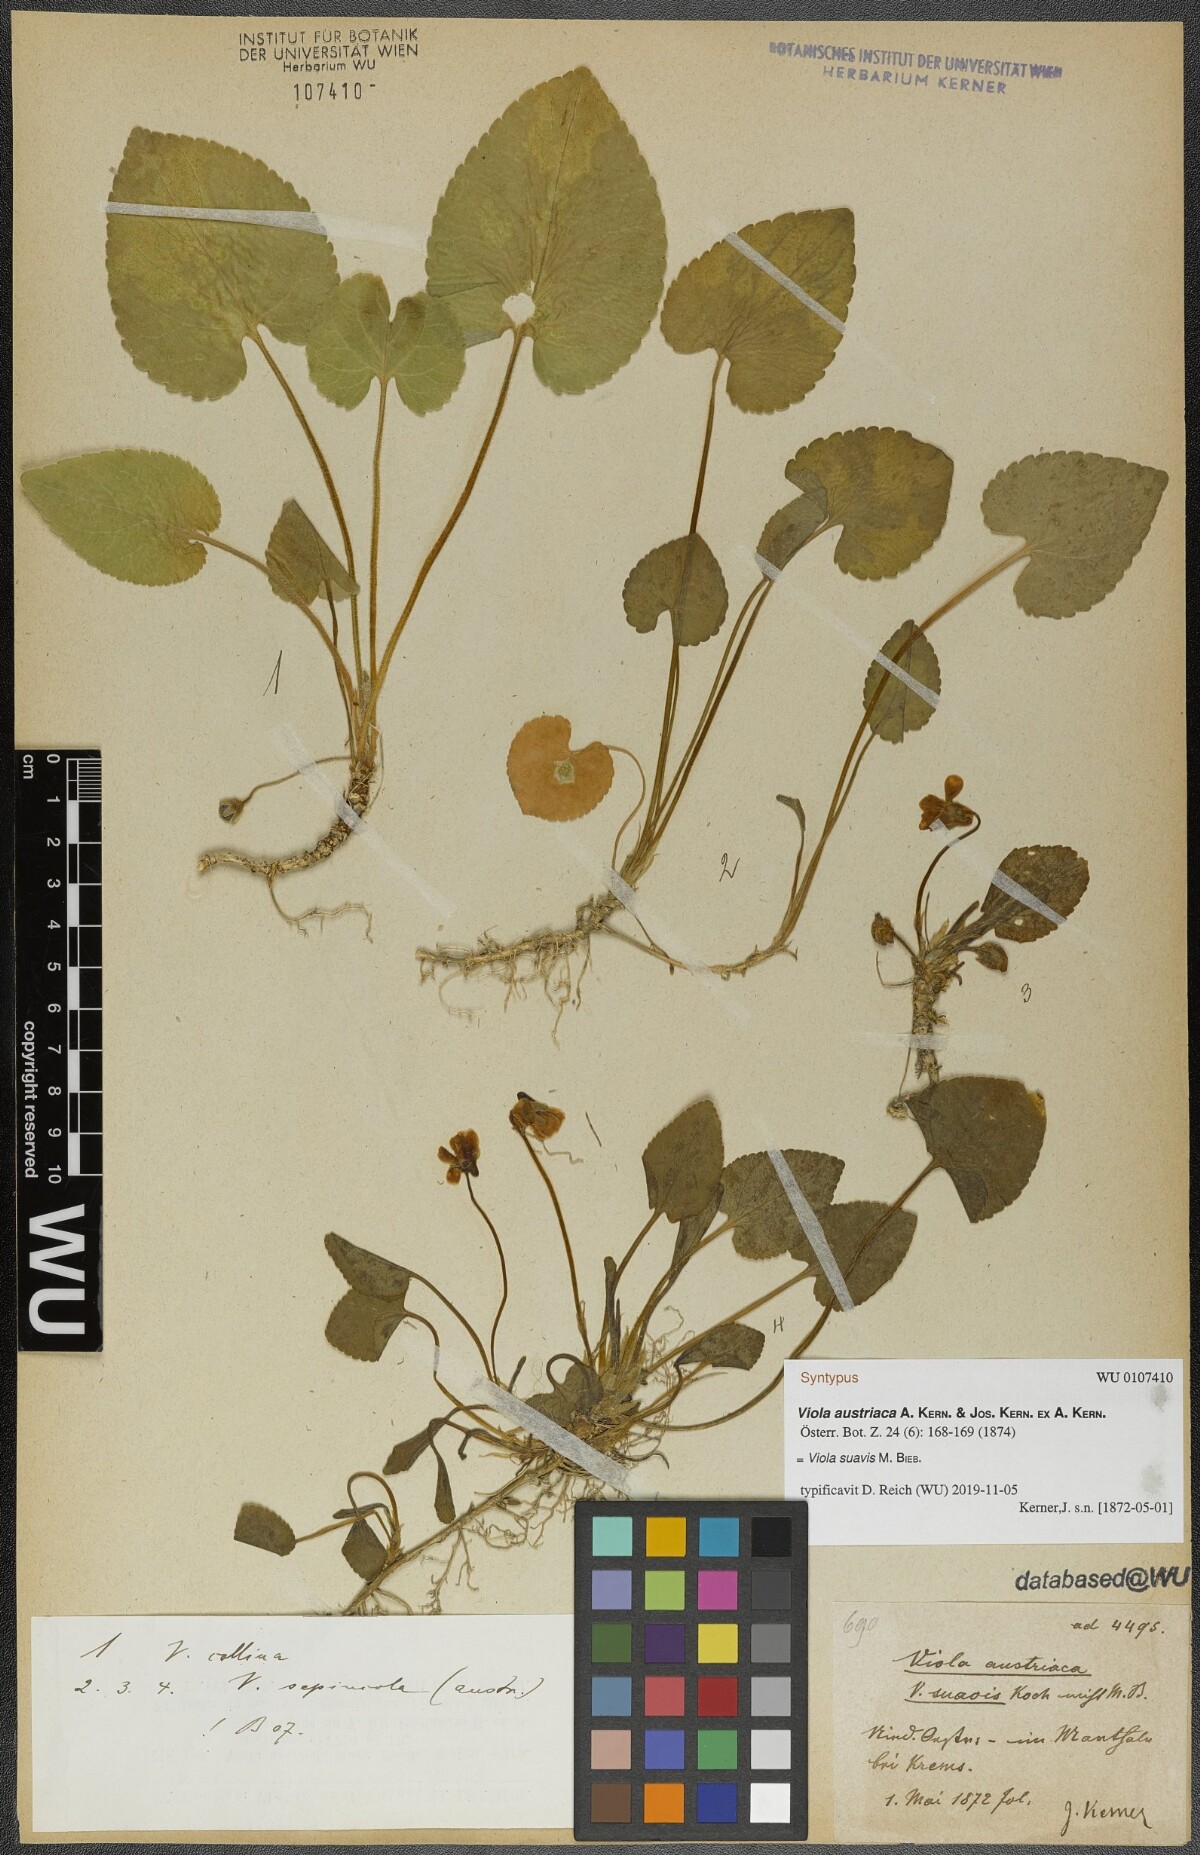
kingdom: Plantae
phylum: Tracheophyta
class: Magnoliopsida
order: Malpighiales
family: Violaceae
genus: Viola
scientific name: Viola suavis
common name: Russian violet
